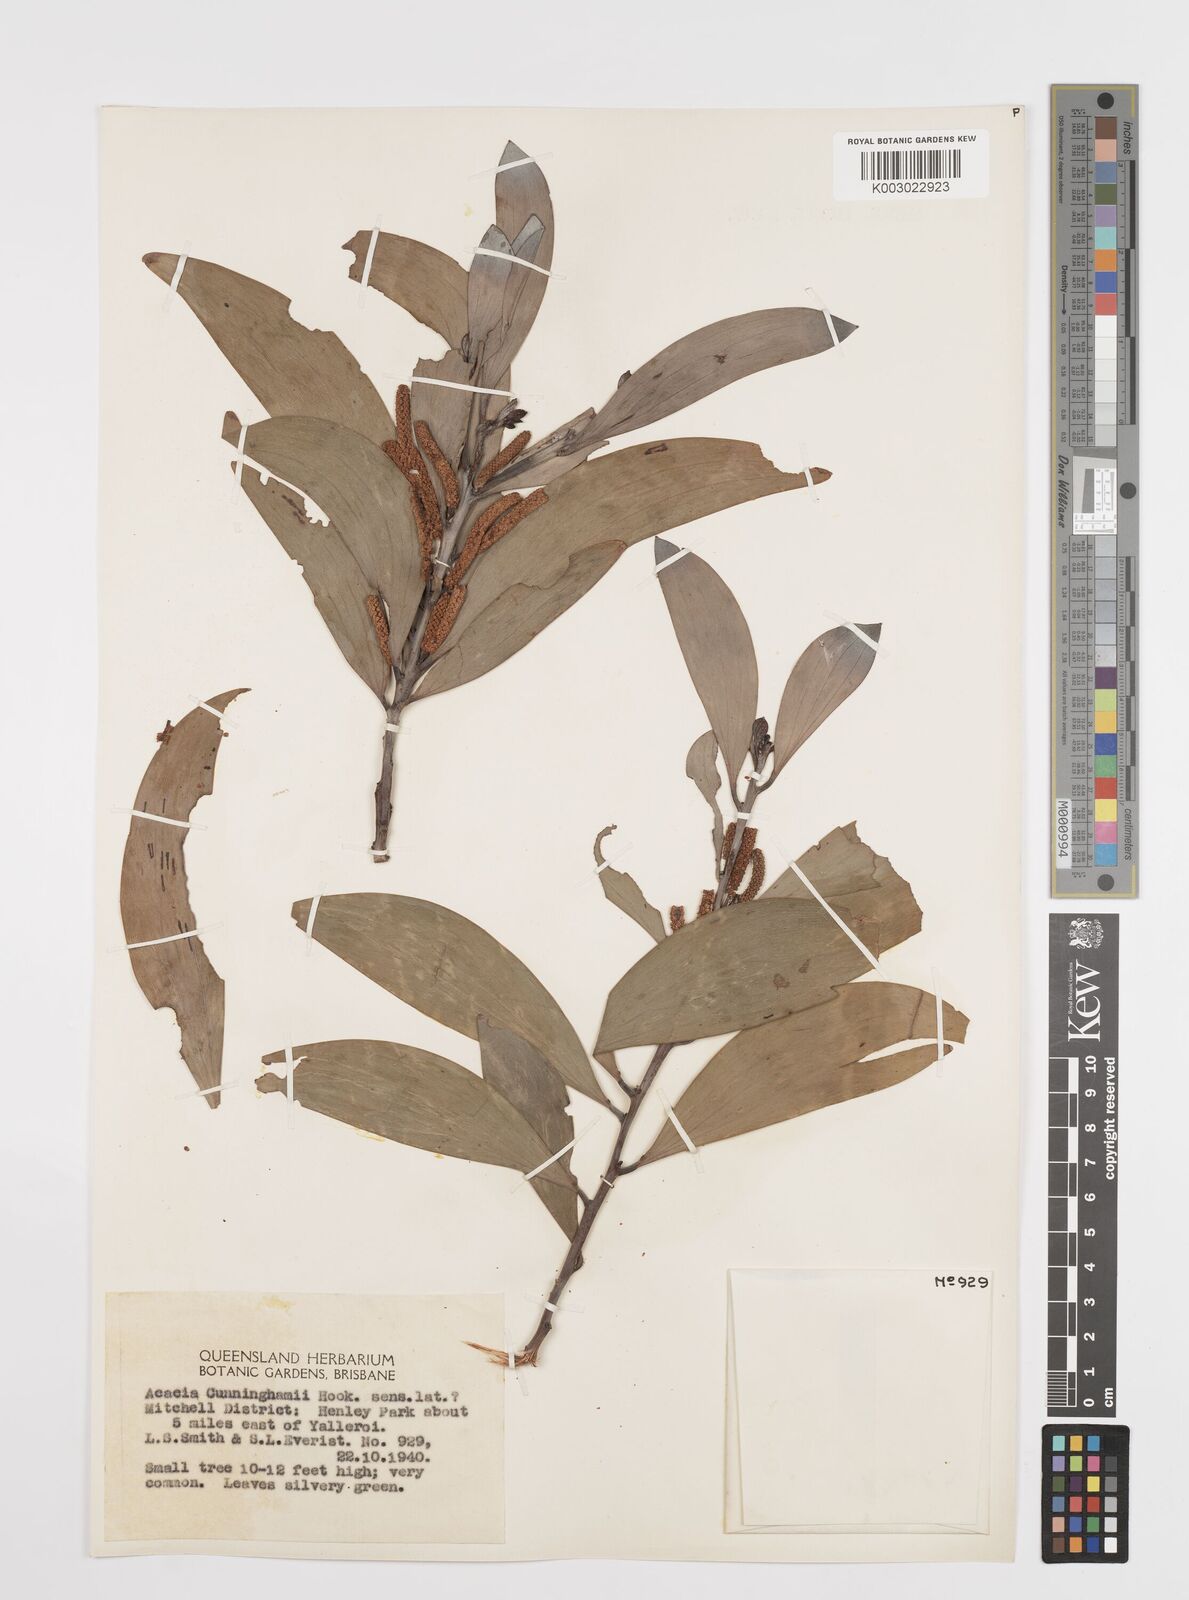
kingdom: Plantae
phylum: Tracheophyta
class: Magnoliopsida
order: Fabales
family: Fabaceae
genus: Acacia
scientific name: Acacia longispicata
